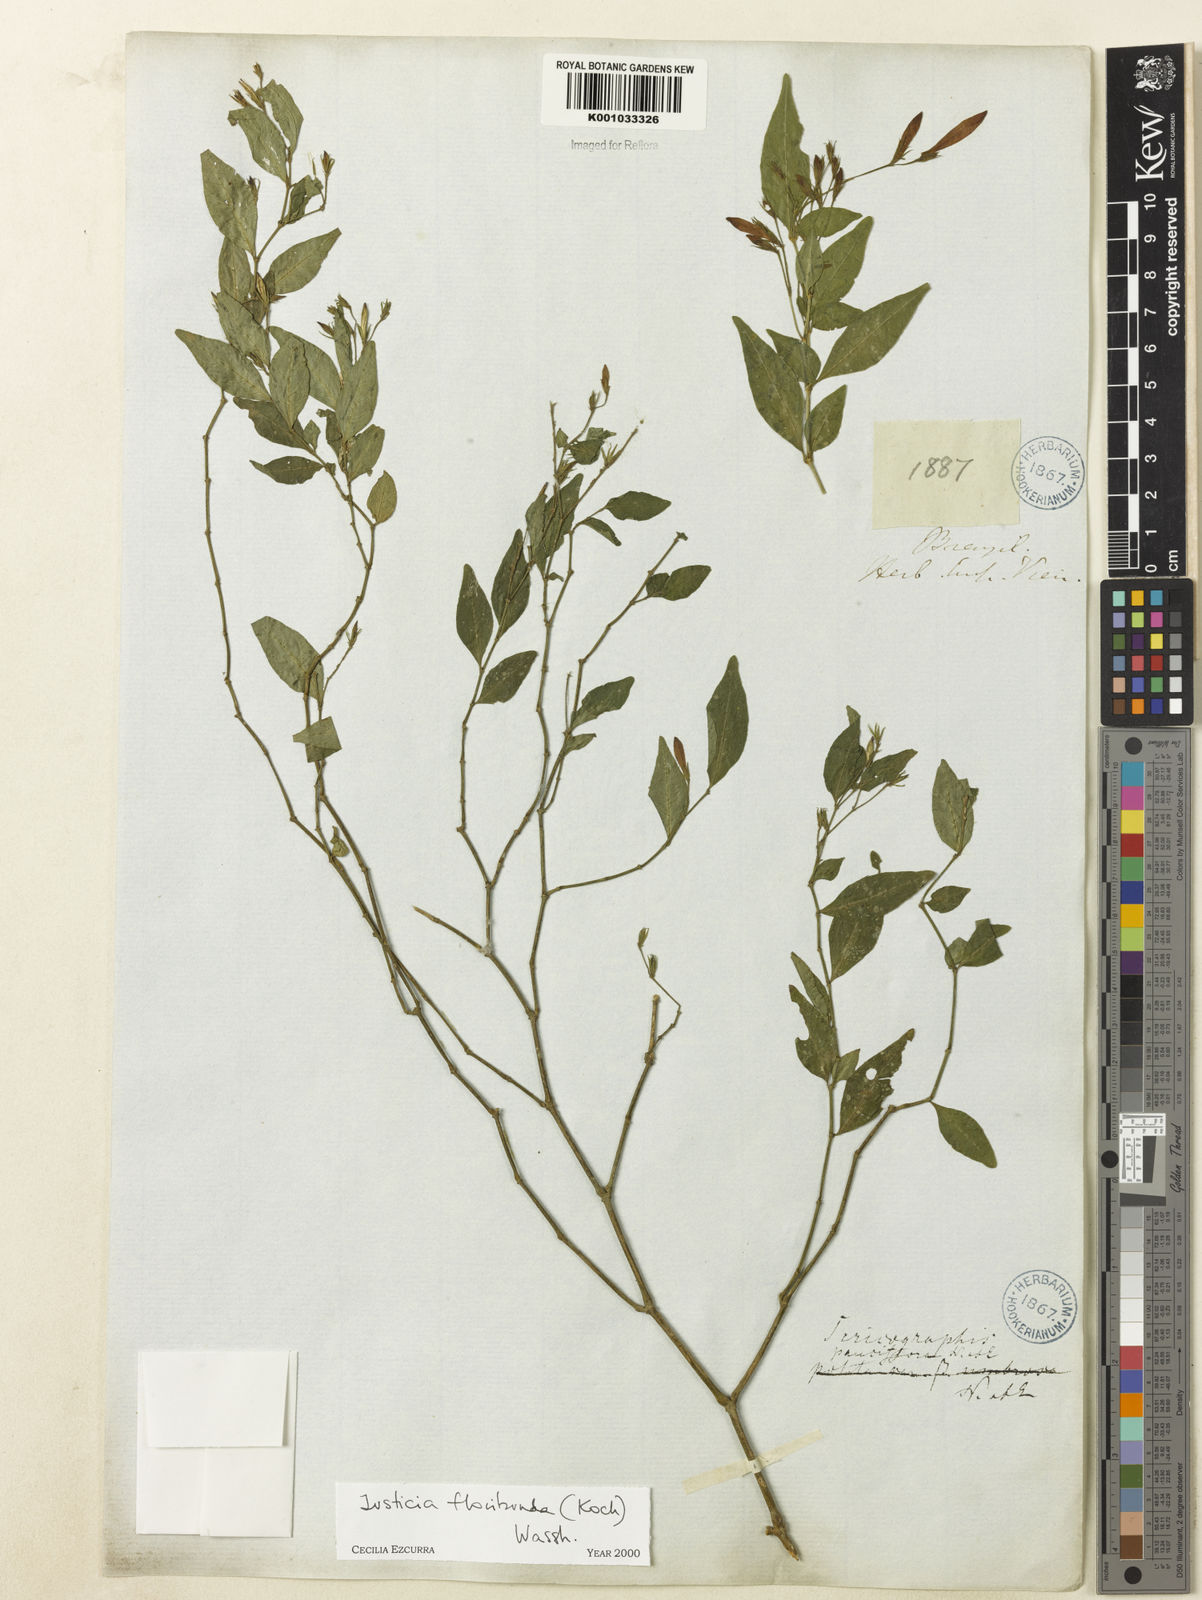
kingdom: Plantae
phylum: Tracheophyta
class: Magnoliopsida
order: Lamiales
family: Acanthaceae
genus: Justicia
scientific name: Justicia floribunda
